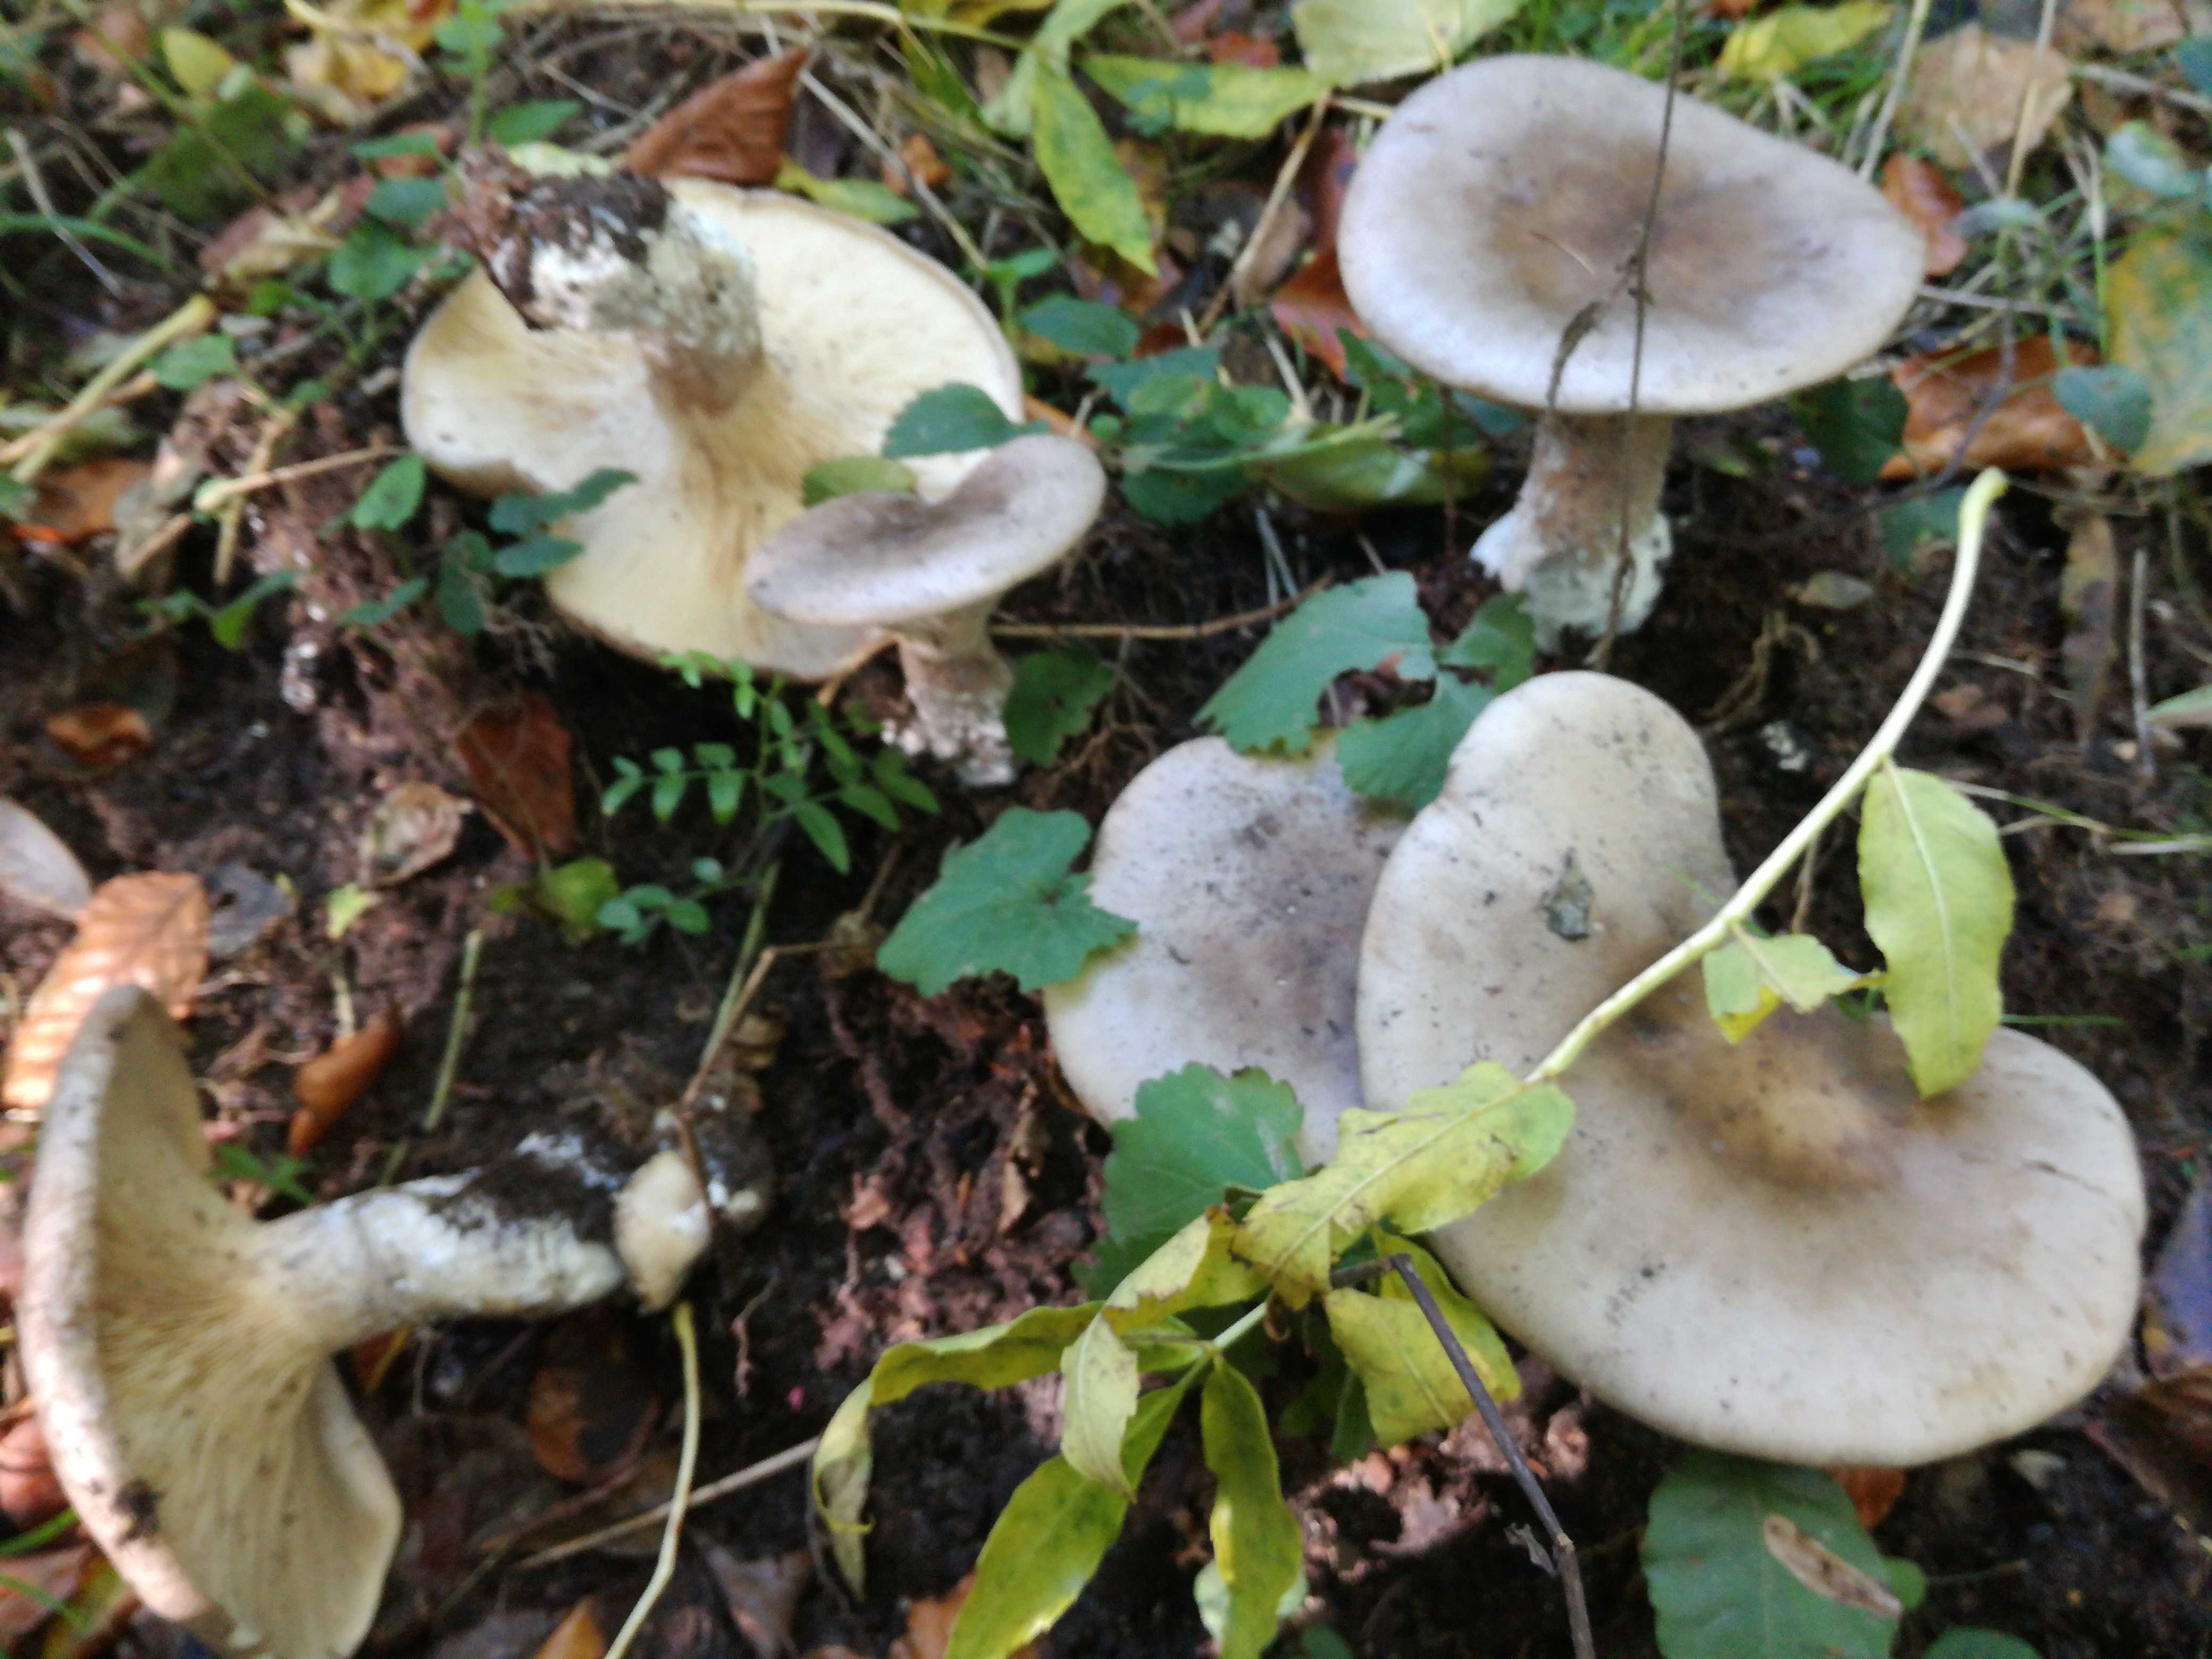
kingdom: Fungi
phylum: Basidiomycota
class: Agaricomycetes
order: Agaricales
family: Tricholomataceae
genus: Clitocybe
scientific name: Clitocybe nebularis
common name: tåge-tragthat
